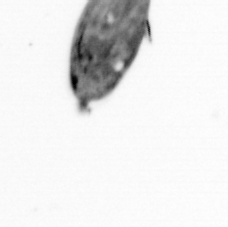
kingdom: Animalia
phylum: Arthropoda
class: Maxillopoda
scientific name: Maxillopoda
